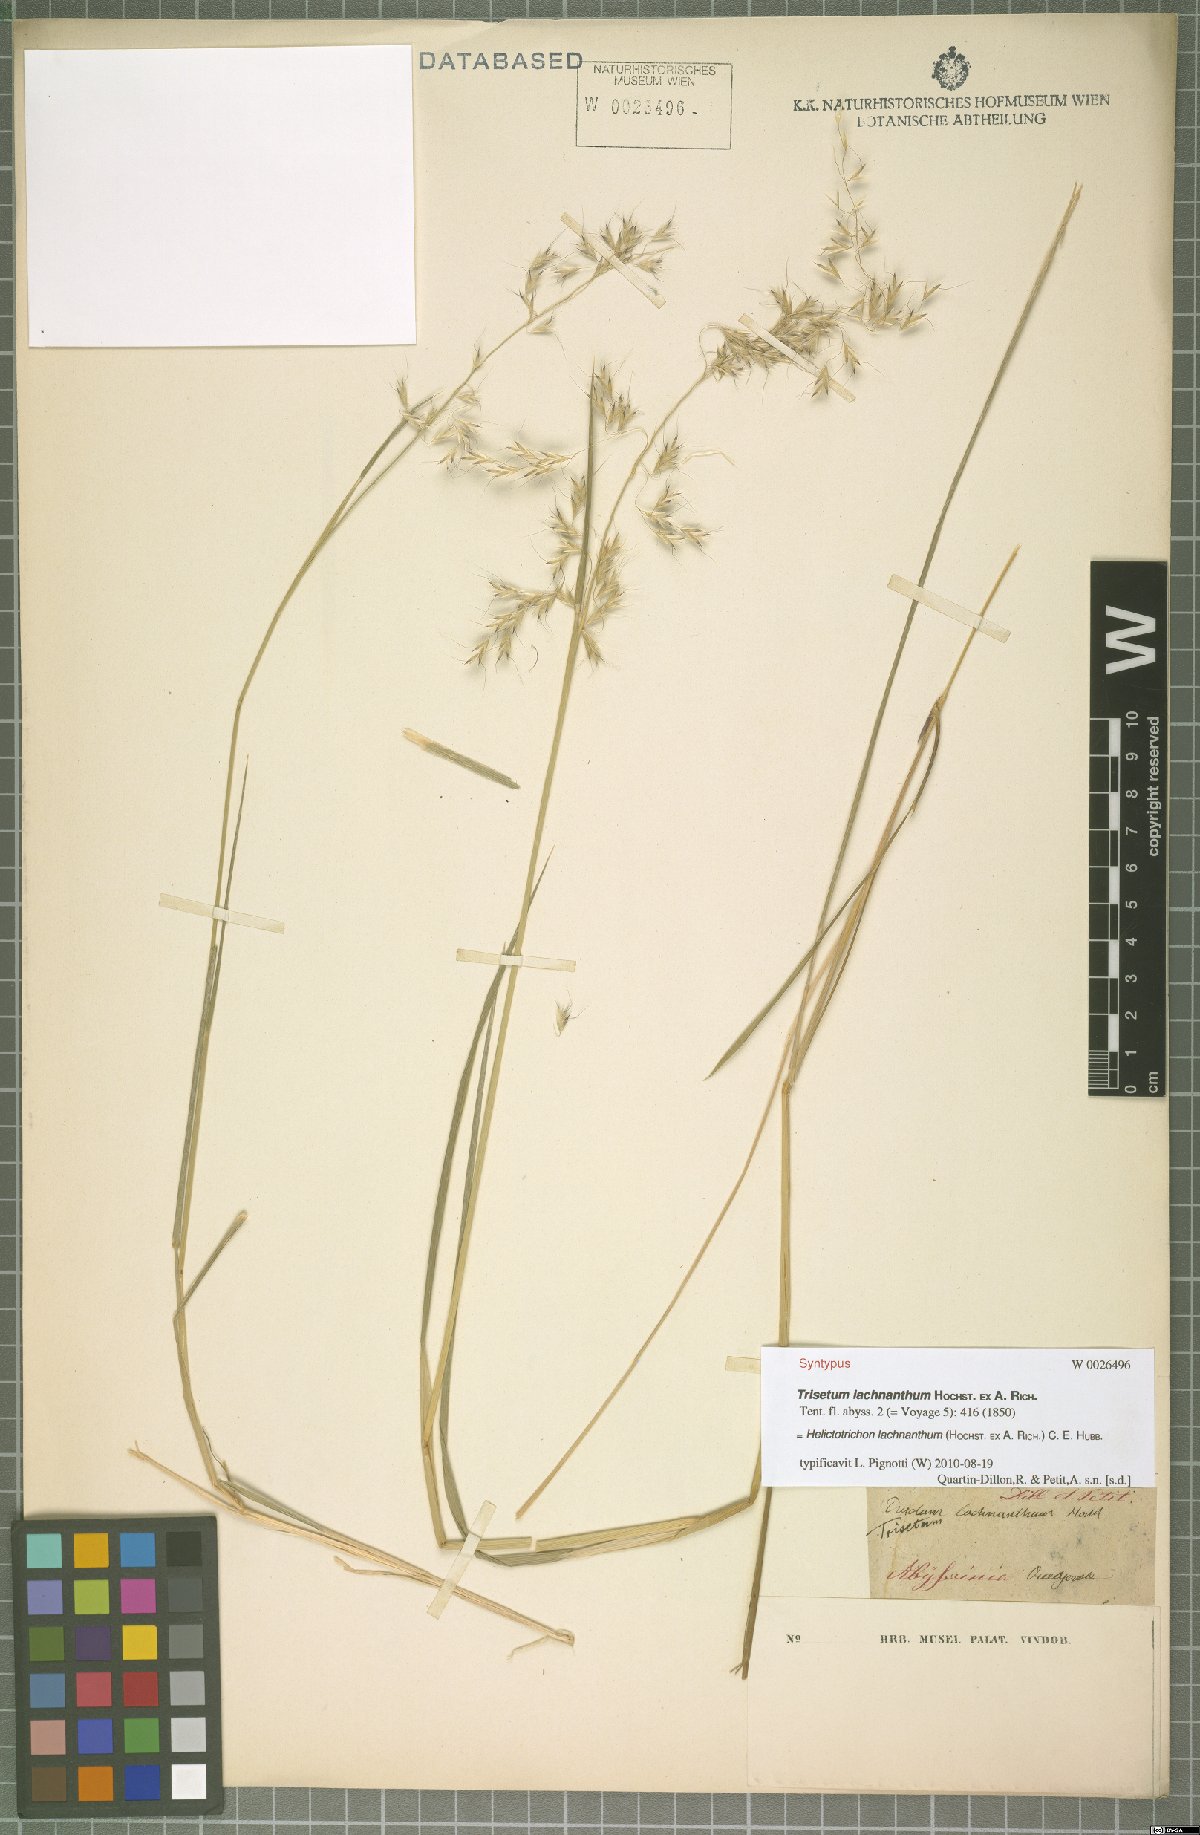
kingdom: Plantae
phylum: Tracheophyta
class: Liliopsida
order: Poales
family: Poaceae
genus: Trisetopsis
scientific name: Trisetopsis lachnantha
